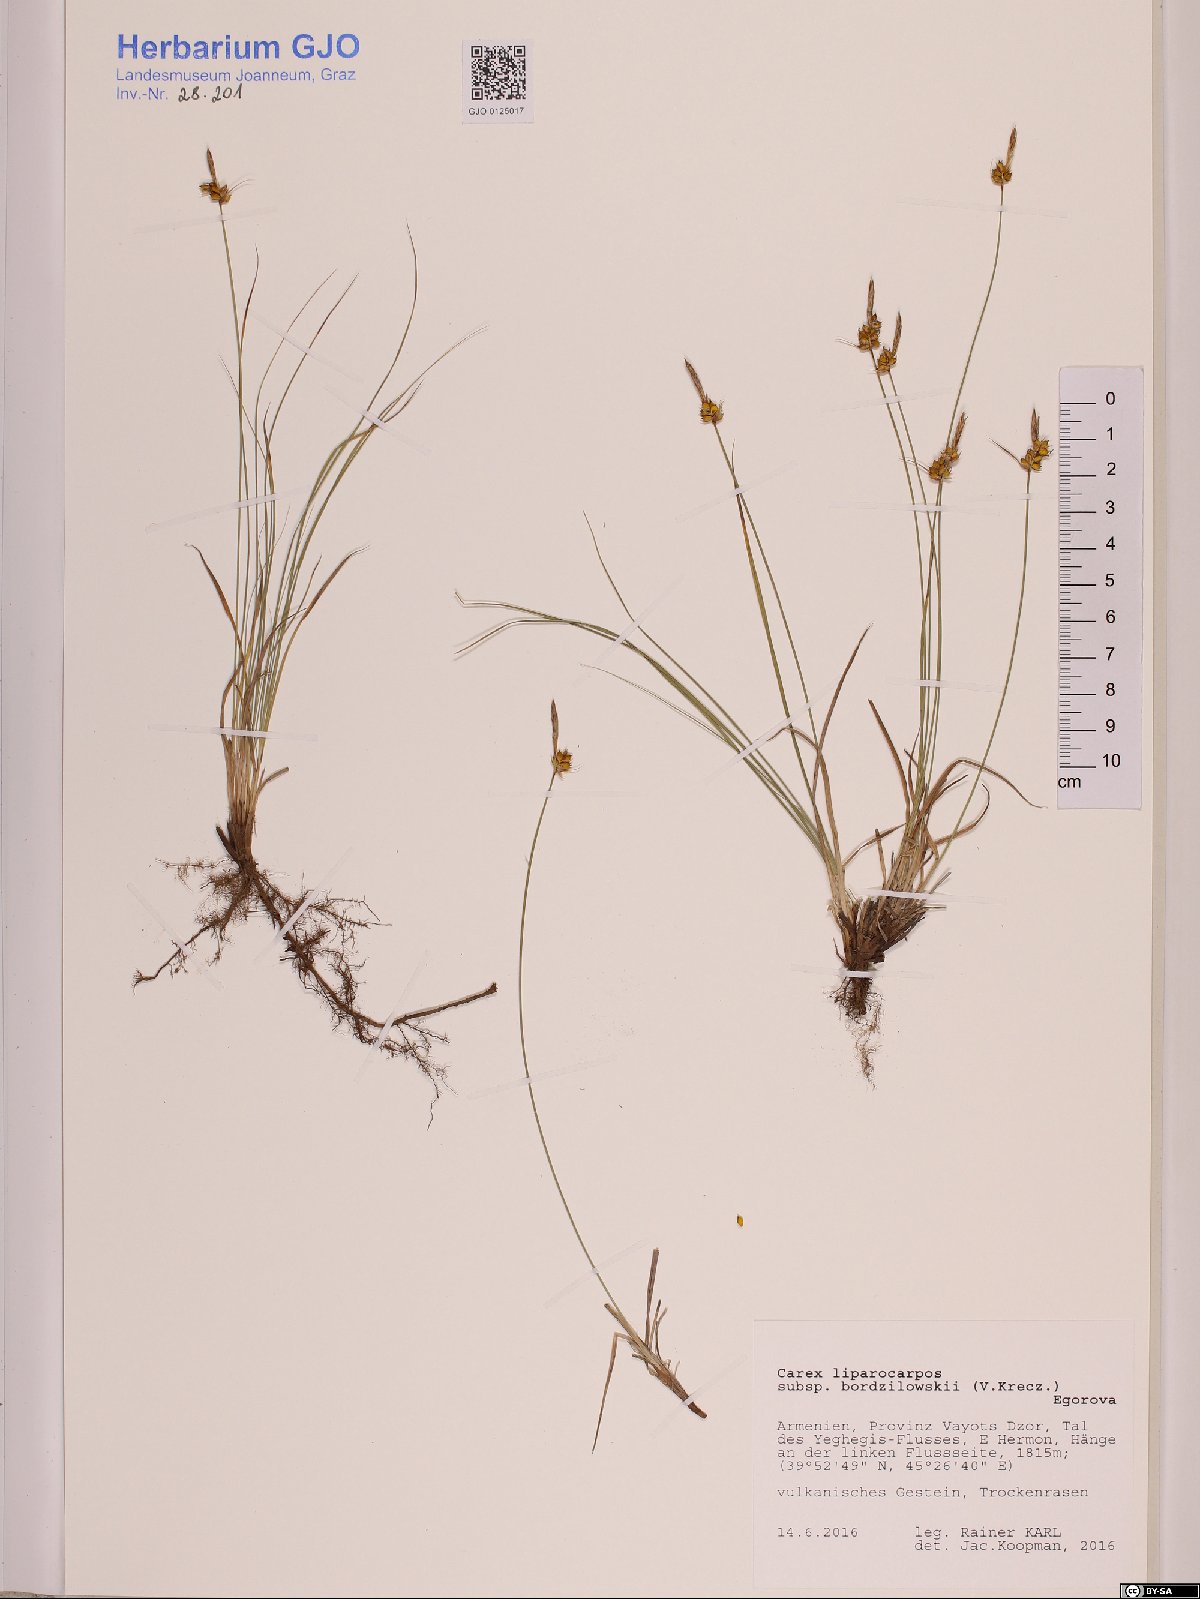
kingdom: Plantae
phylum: Tracheophyta
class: Liliopsida
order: Poales
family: Cyperaceae
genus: Carex
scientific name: Carex liparocarpos
